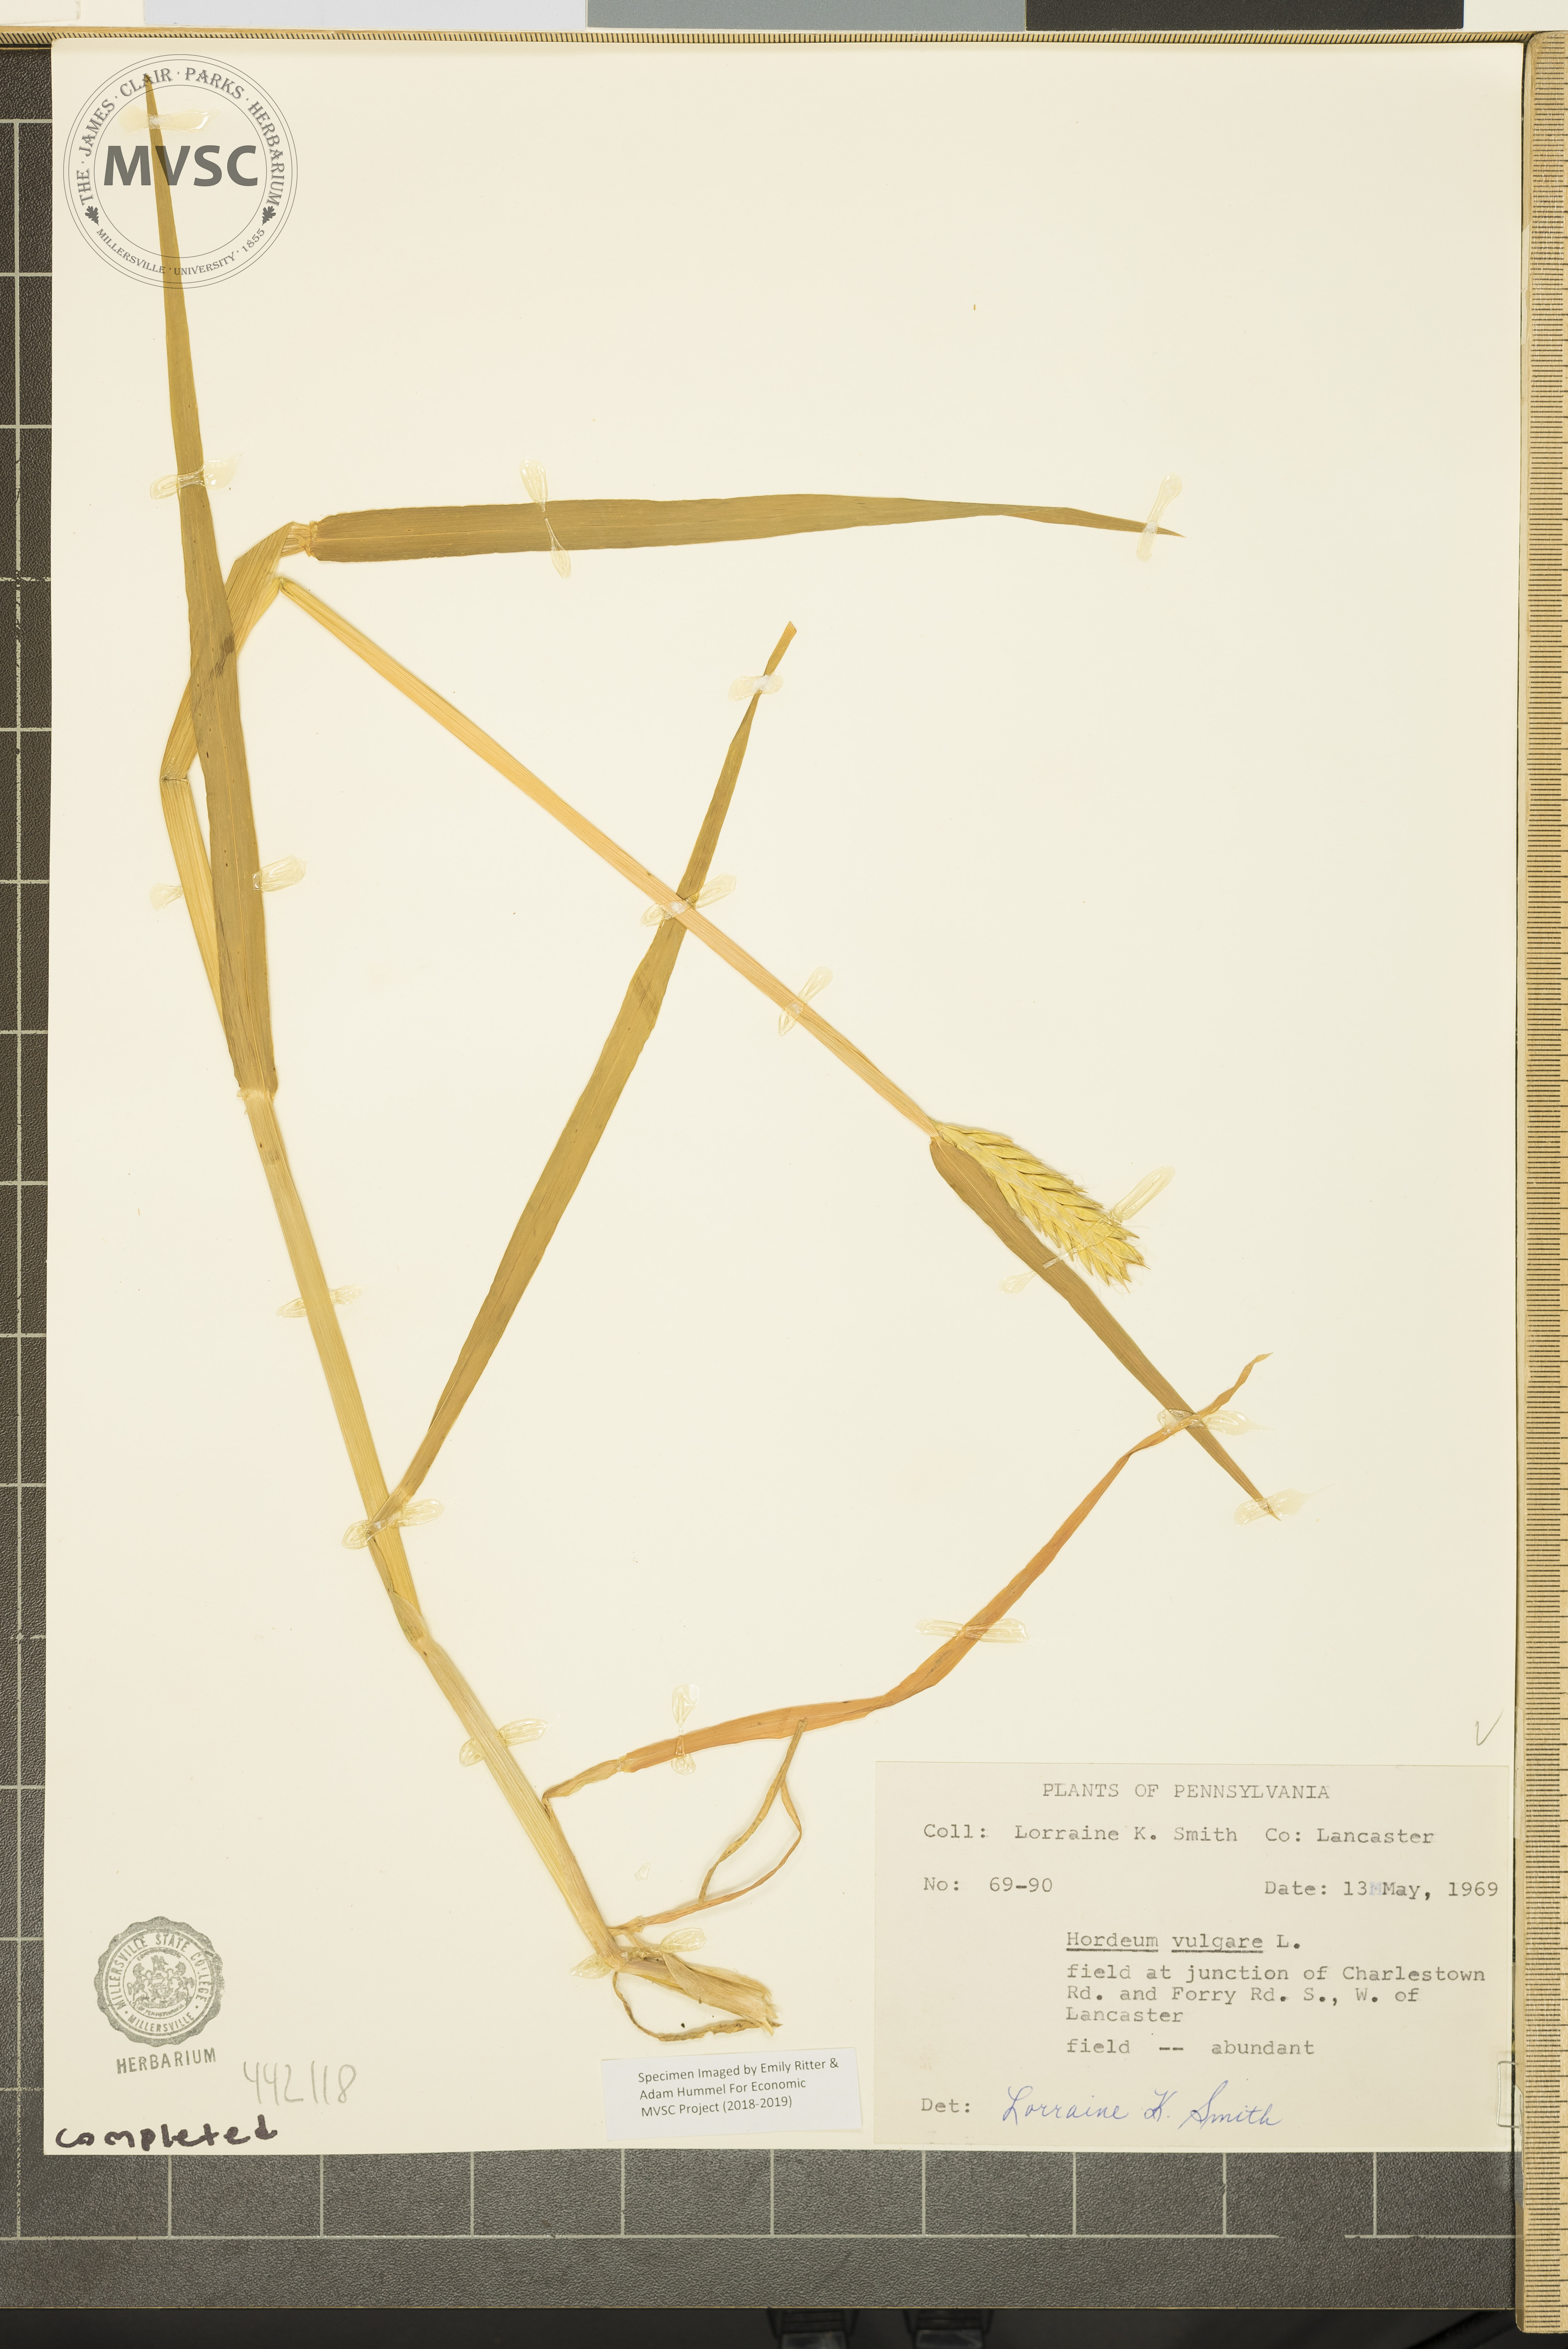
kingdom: Plantae
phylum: Tracheophyta
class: Liliopsida
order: Poales
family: Poaceae
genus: Hordeum
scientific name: Hordeum vulgare
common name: Common barley
